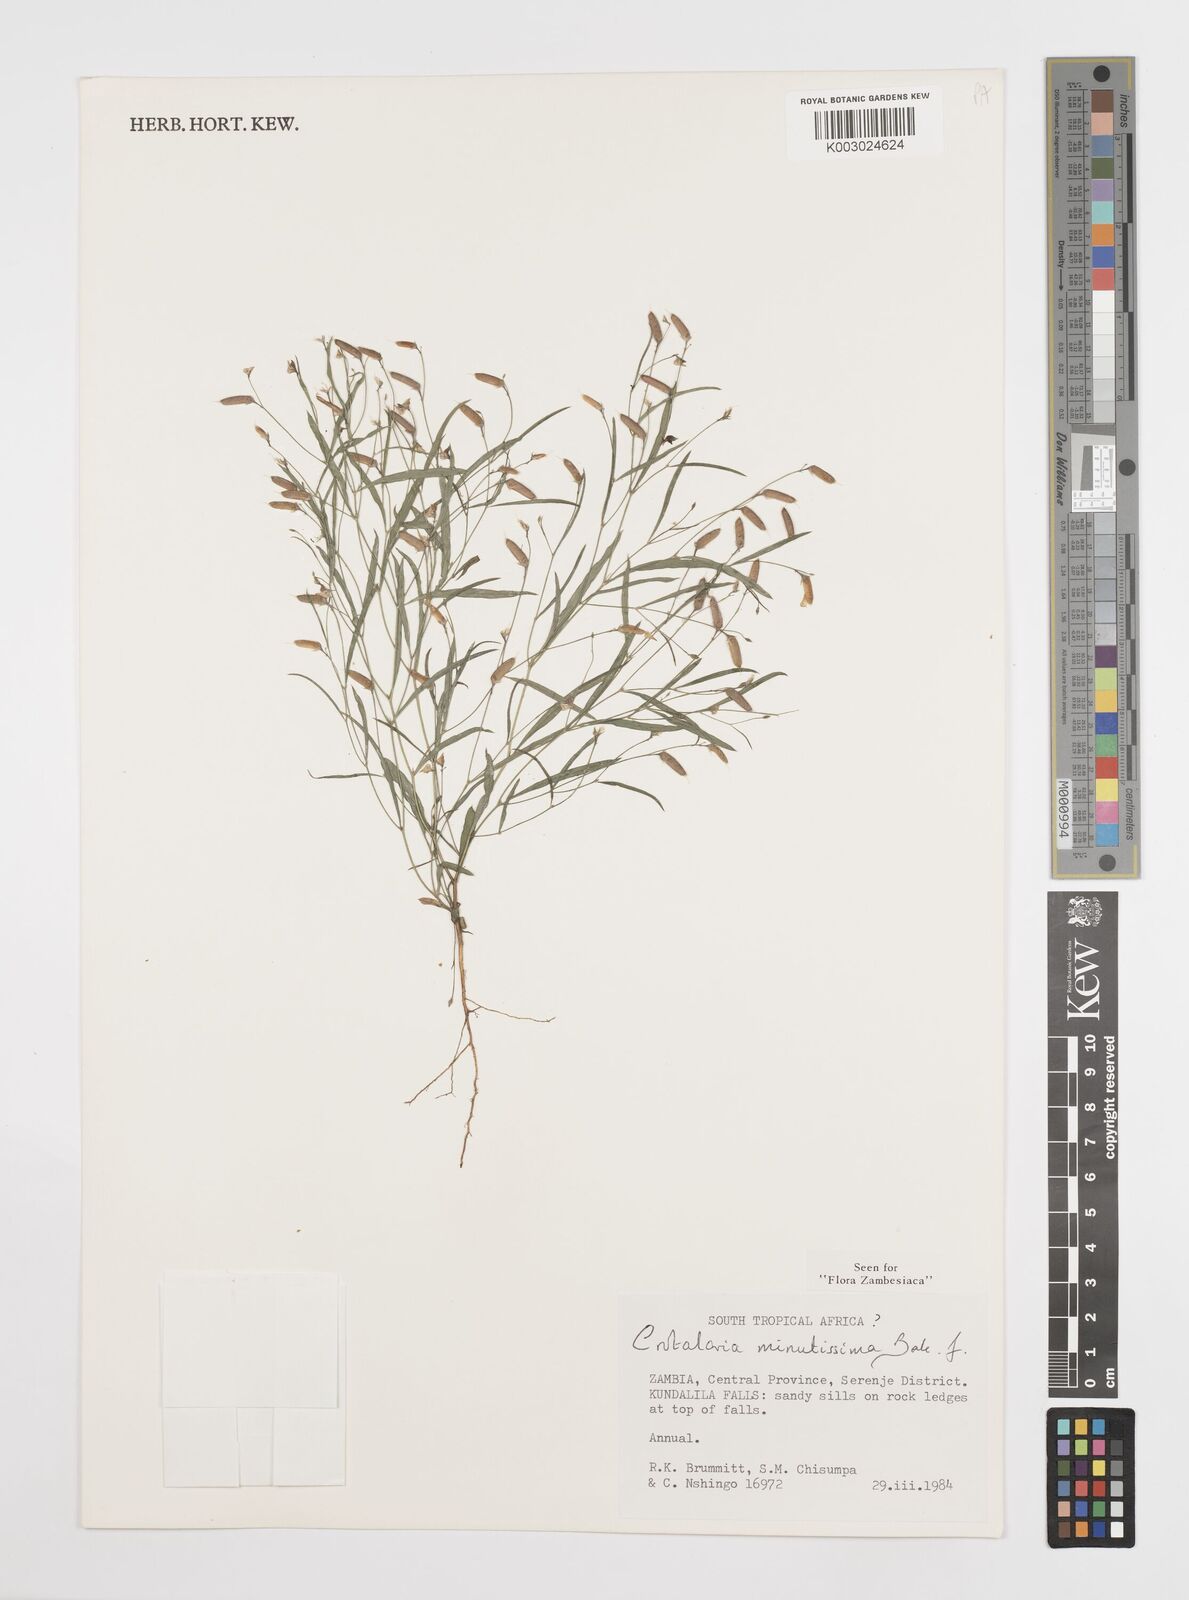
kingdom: Plantae
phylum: Tracheophyta
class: Magnoliopsida
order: Fabales
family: Fabaceae
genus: Crotalaria
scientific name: Crotalaria minutissima
